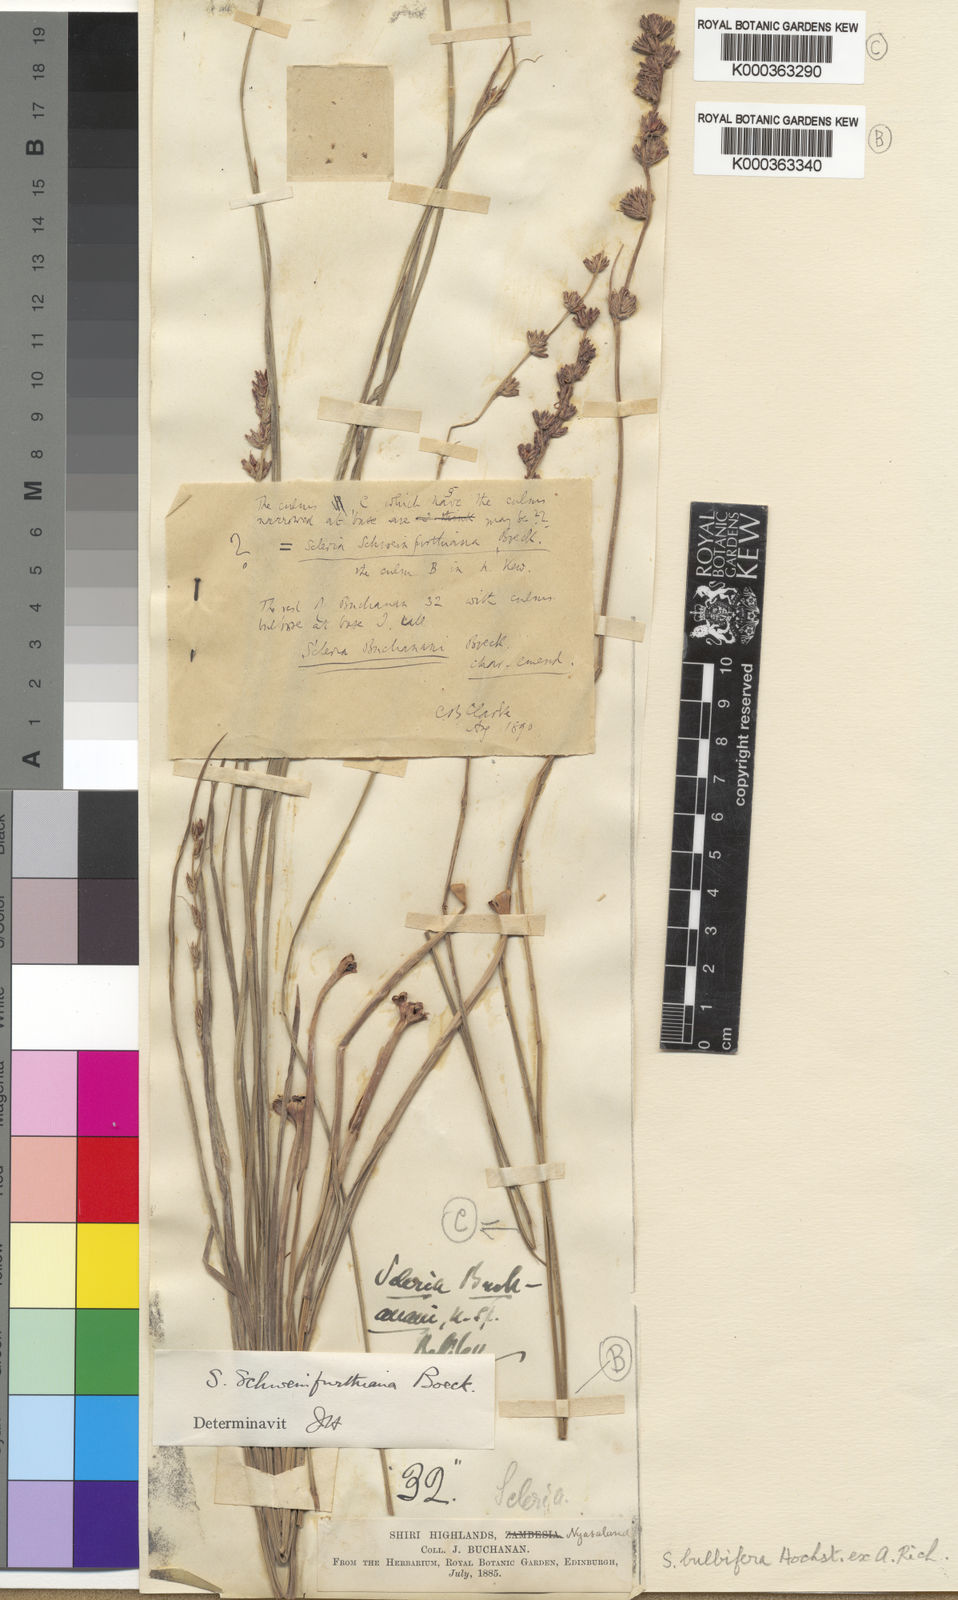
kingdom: Plantae
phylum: Tracheophyta
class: Liliopsida
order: Poales
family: Cyperaceae
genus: Scleria
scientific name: Scleria bulbifera
